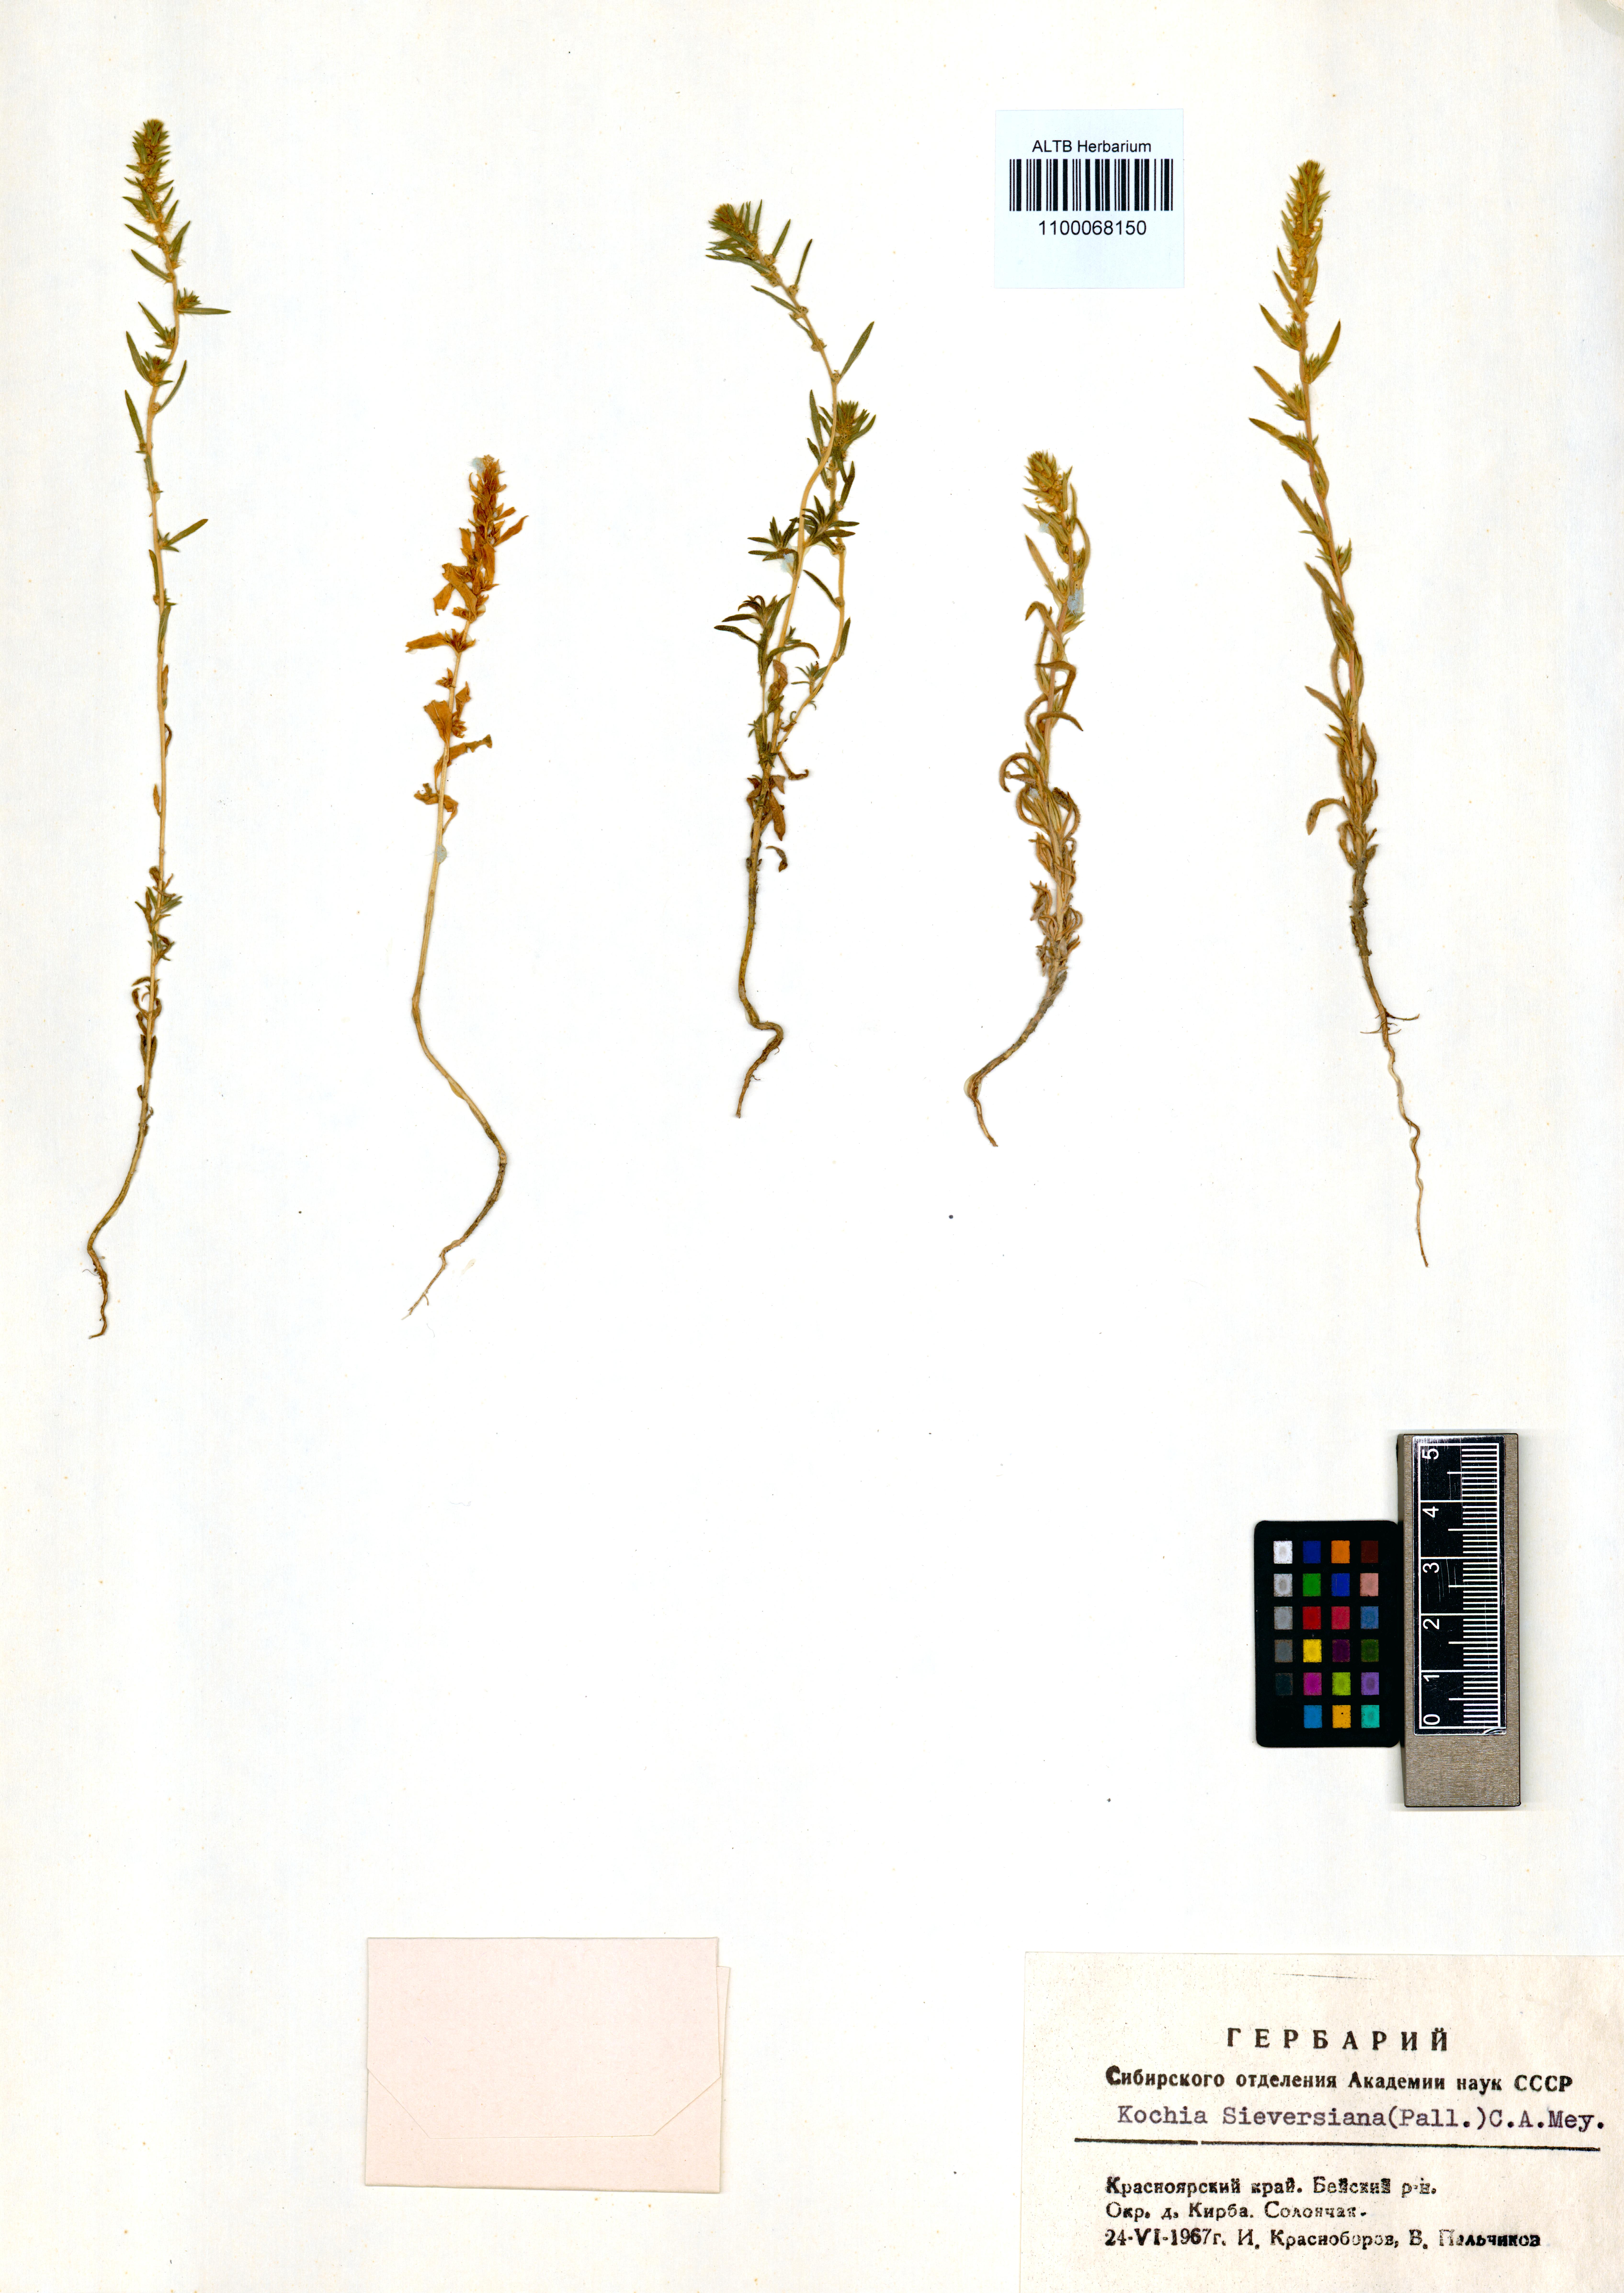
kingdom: Plantae
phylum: Tracheophyta
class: Magnoliopsida
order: Caryophyllales
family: Amaranthaceae
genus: Bassia
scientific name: Bassia scoparia
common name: Belvedere
